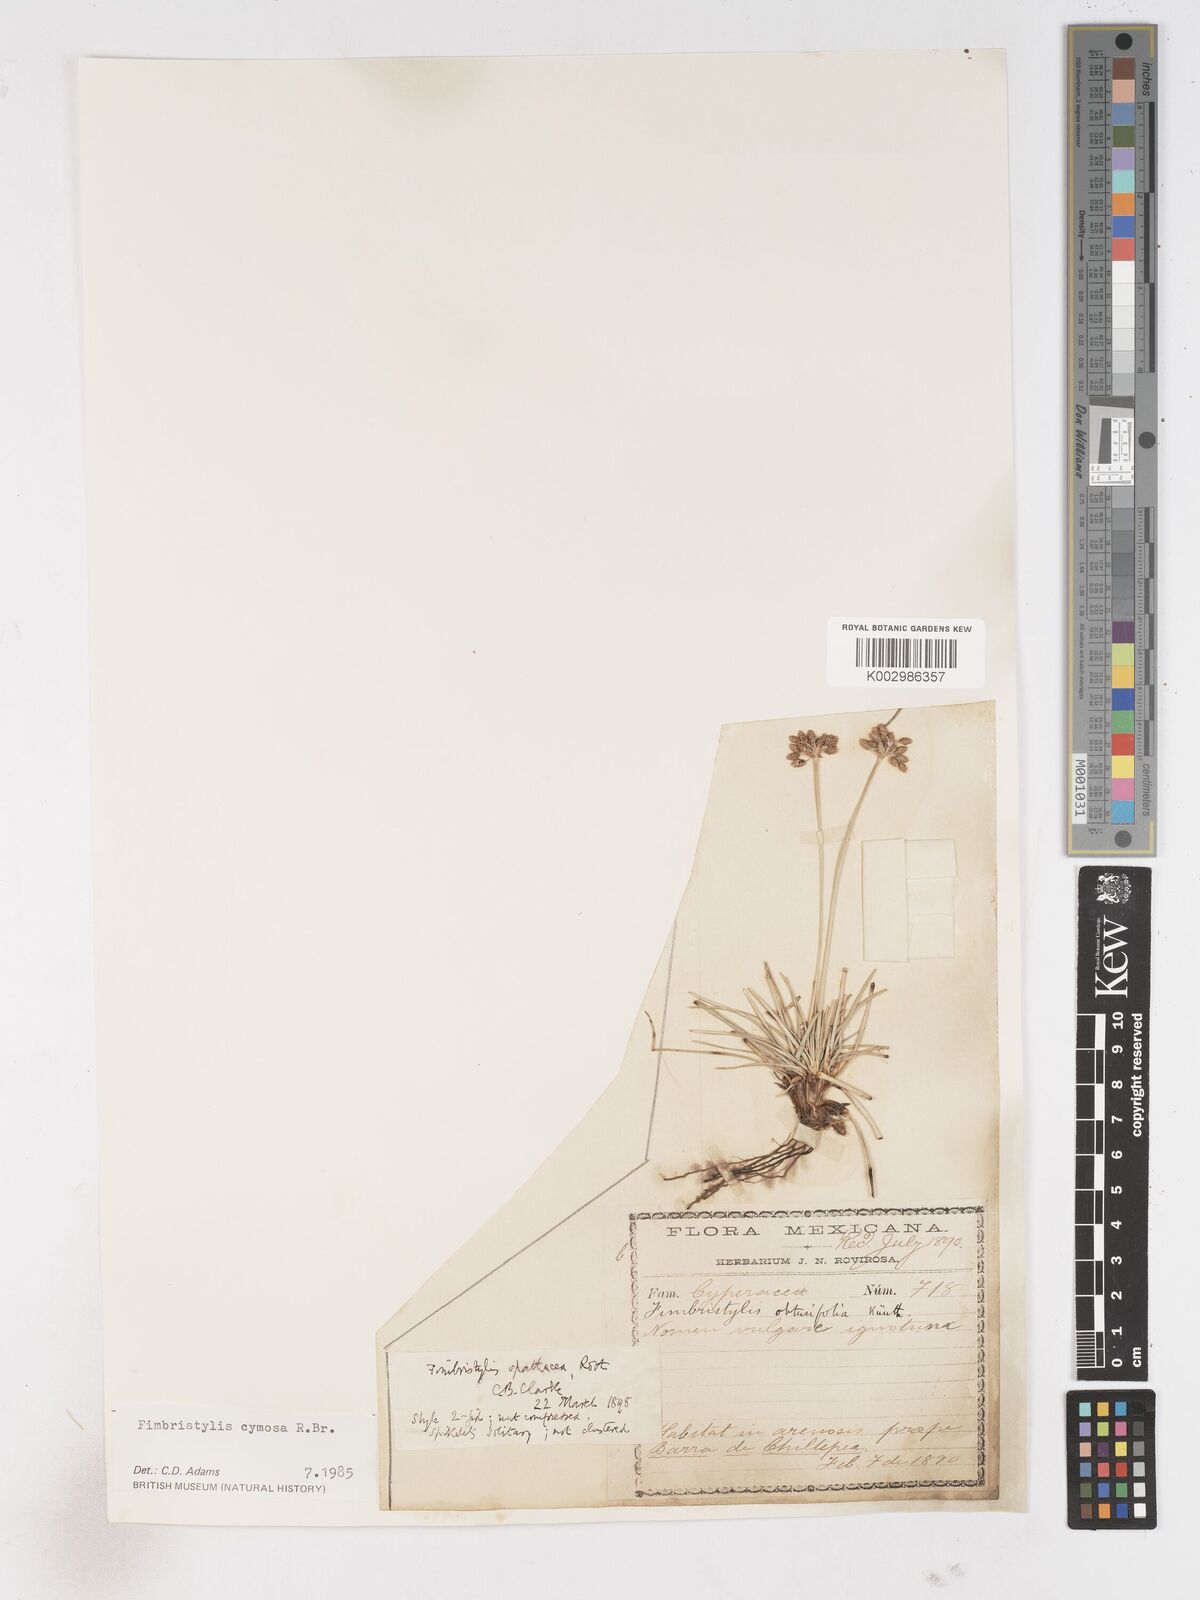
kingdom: Plantae
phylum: Tracheophyta
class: Liliopsida
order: Poales
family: Cyperaceae
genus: Fimbristylis
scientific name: Fimbristylis cymosa
